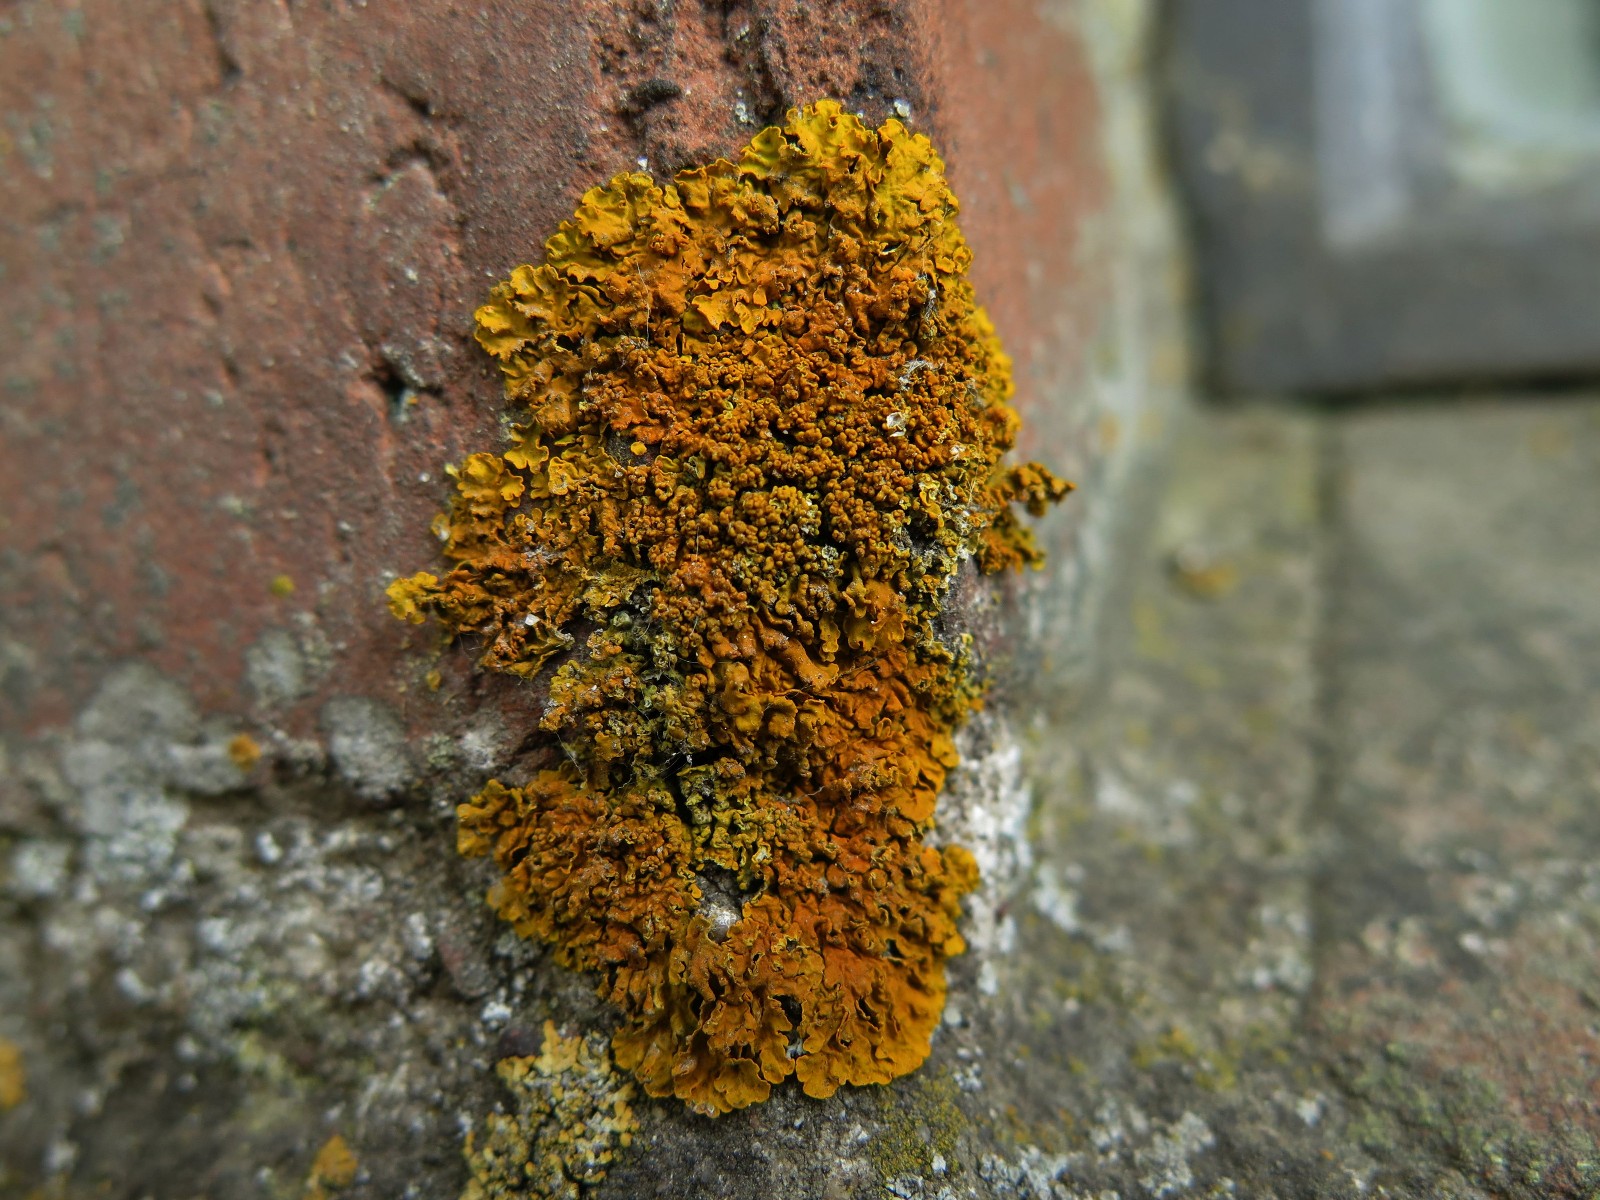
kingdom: Fungi
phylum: Ascomycota
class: Lecanoromycetes
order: Teloschistales
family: Teloschistaceae
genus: Xanthoria
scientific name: Xanthoria calcicola
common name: vortet væggelav
